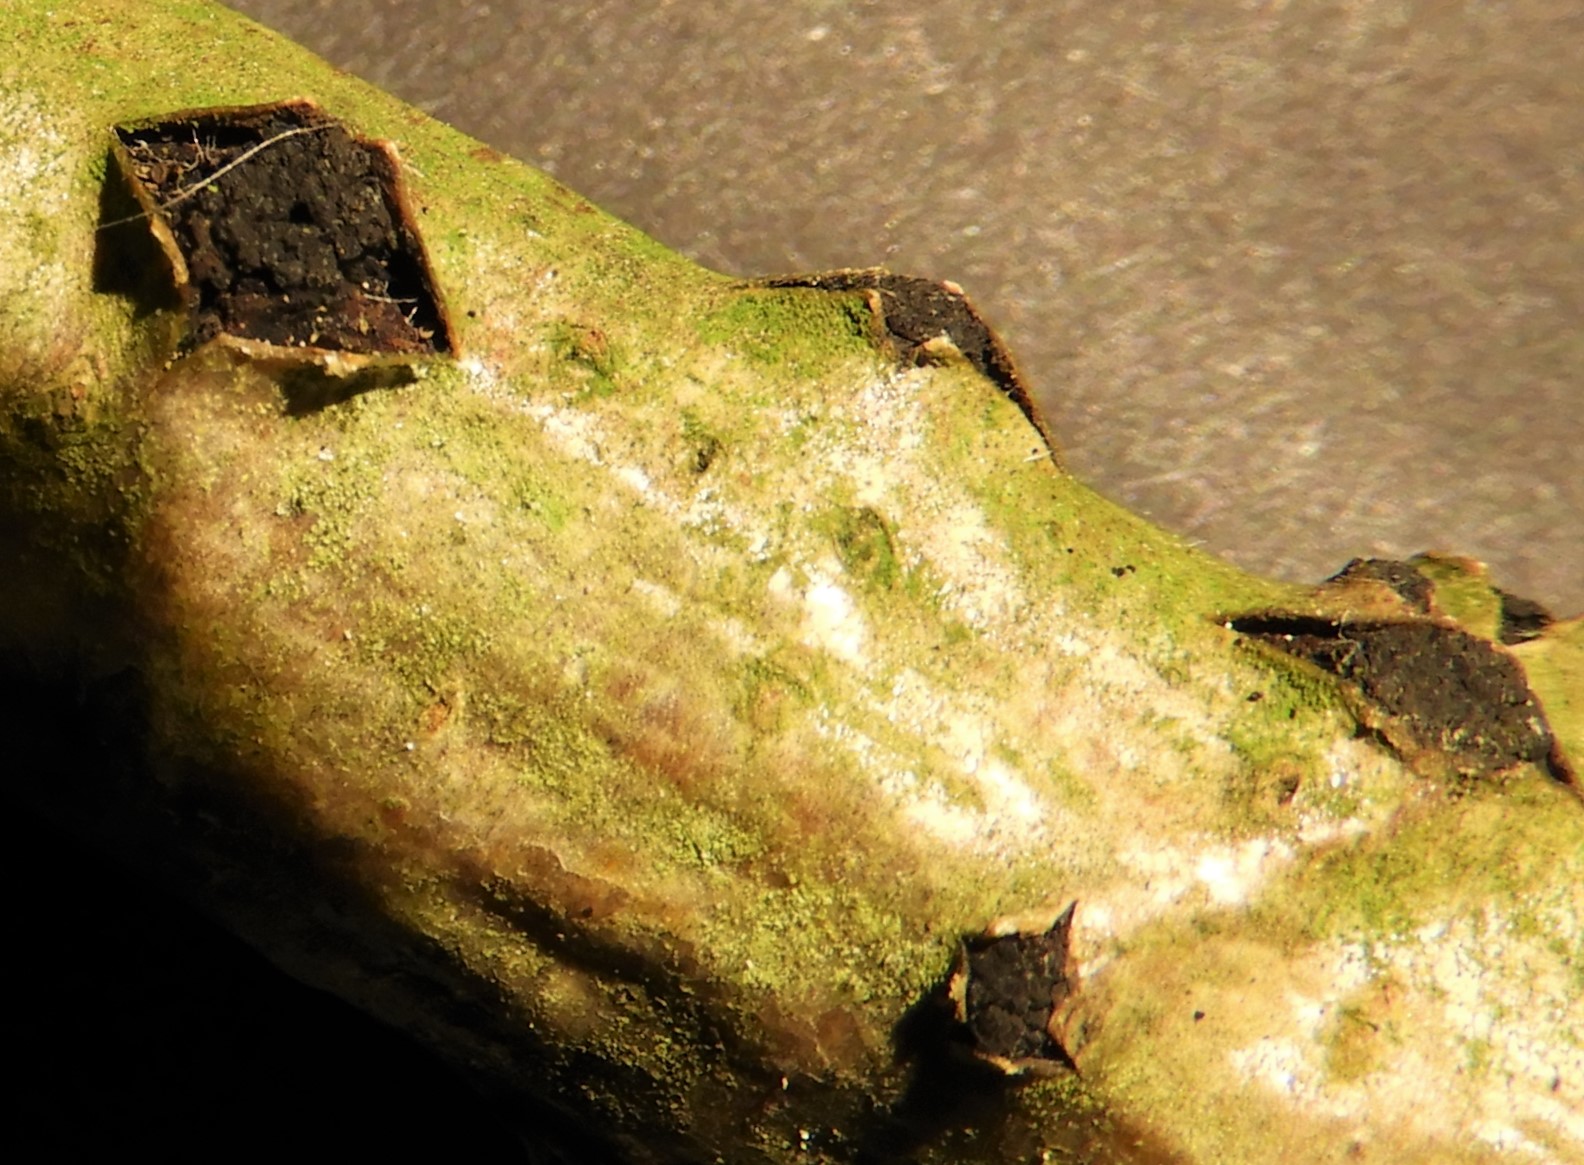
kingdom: Fungi
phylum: Ascomycota
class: Sordariomycetes
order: Xylariales
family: Diatrypaceae
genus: Eutypella
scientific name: Eutypella sorbi
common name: rønne-kulskorpe
